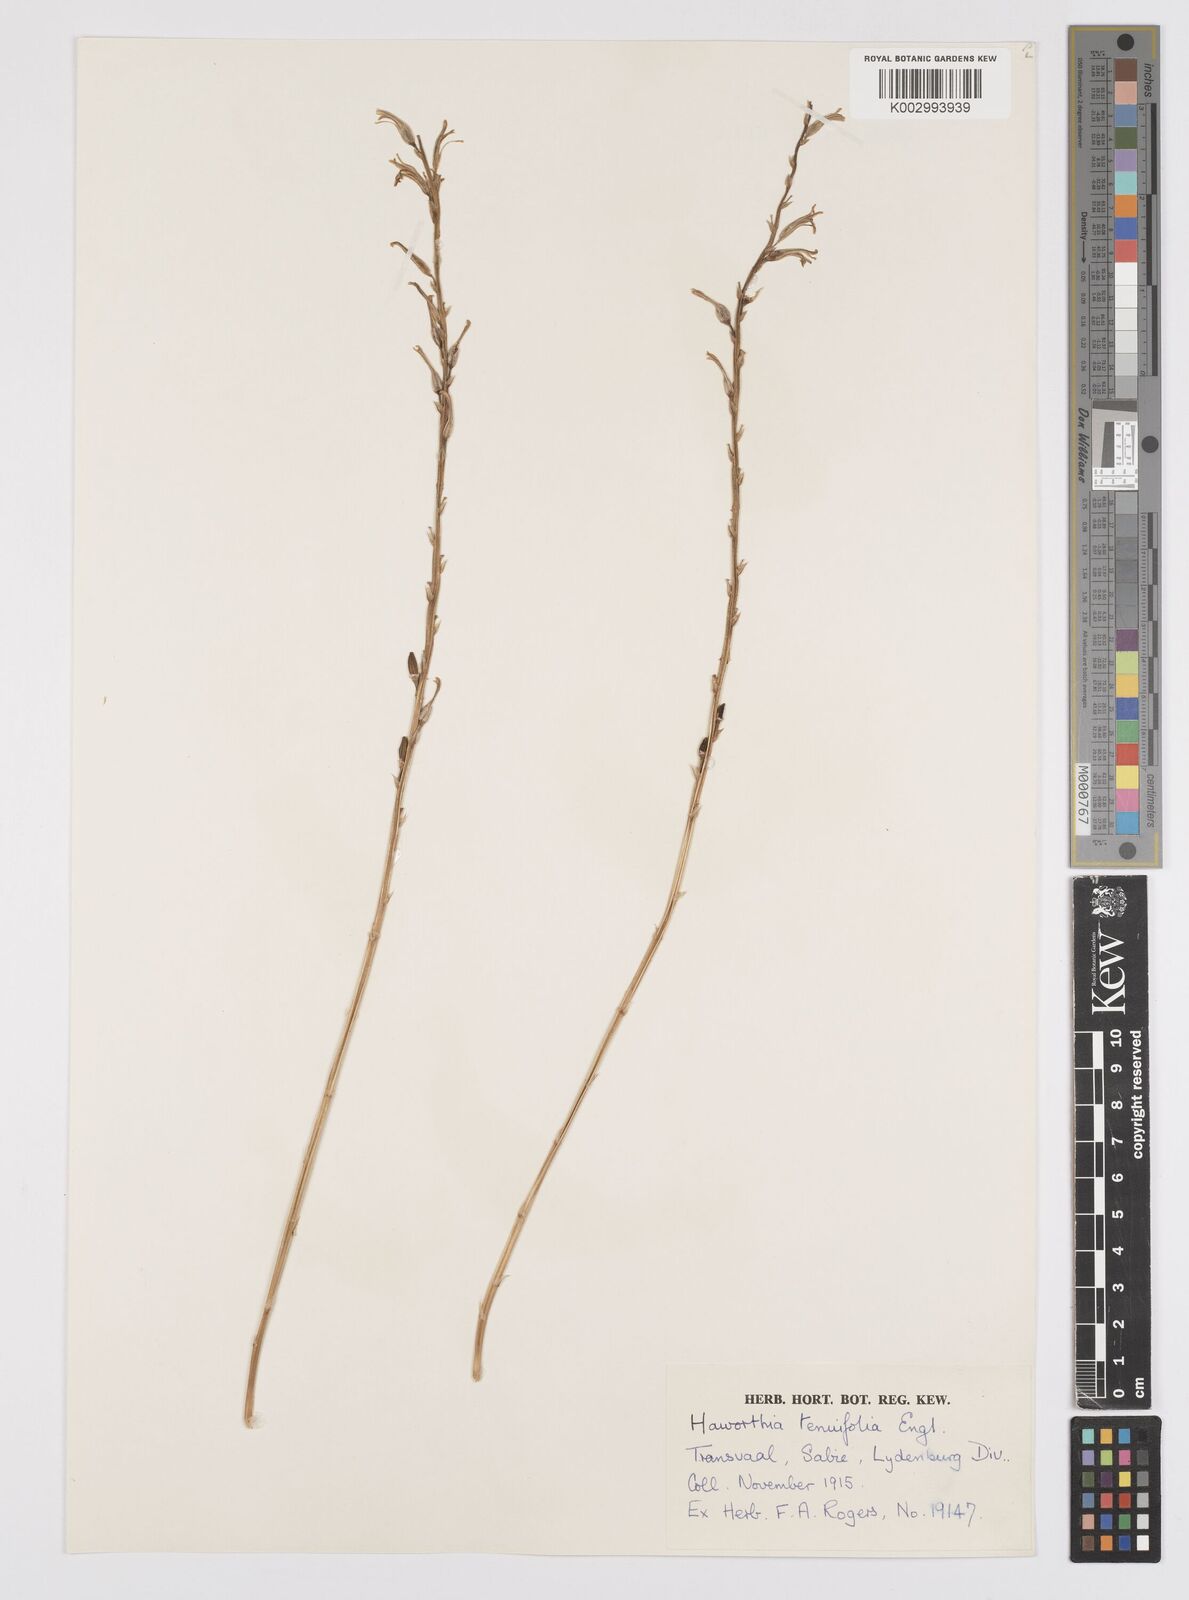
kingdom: Plantae
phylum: Tracheophyta
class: Liliopsida
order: Asparagales
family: Asphodelaceae
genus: Aloe
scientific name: Aloe welwitschii
